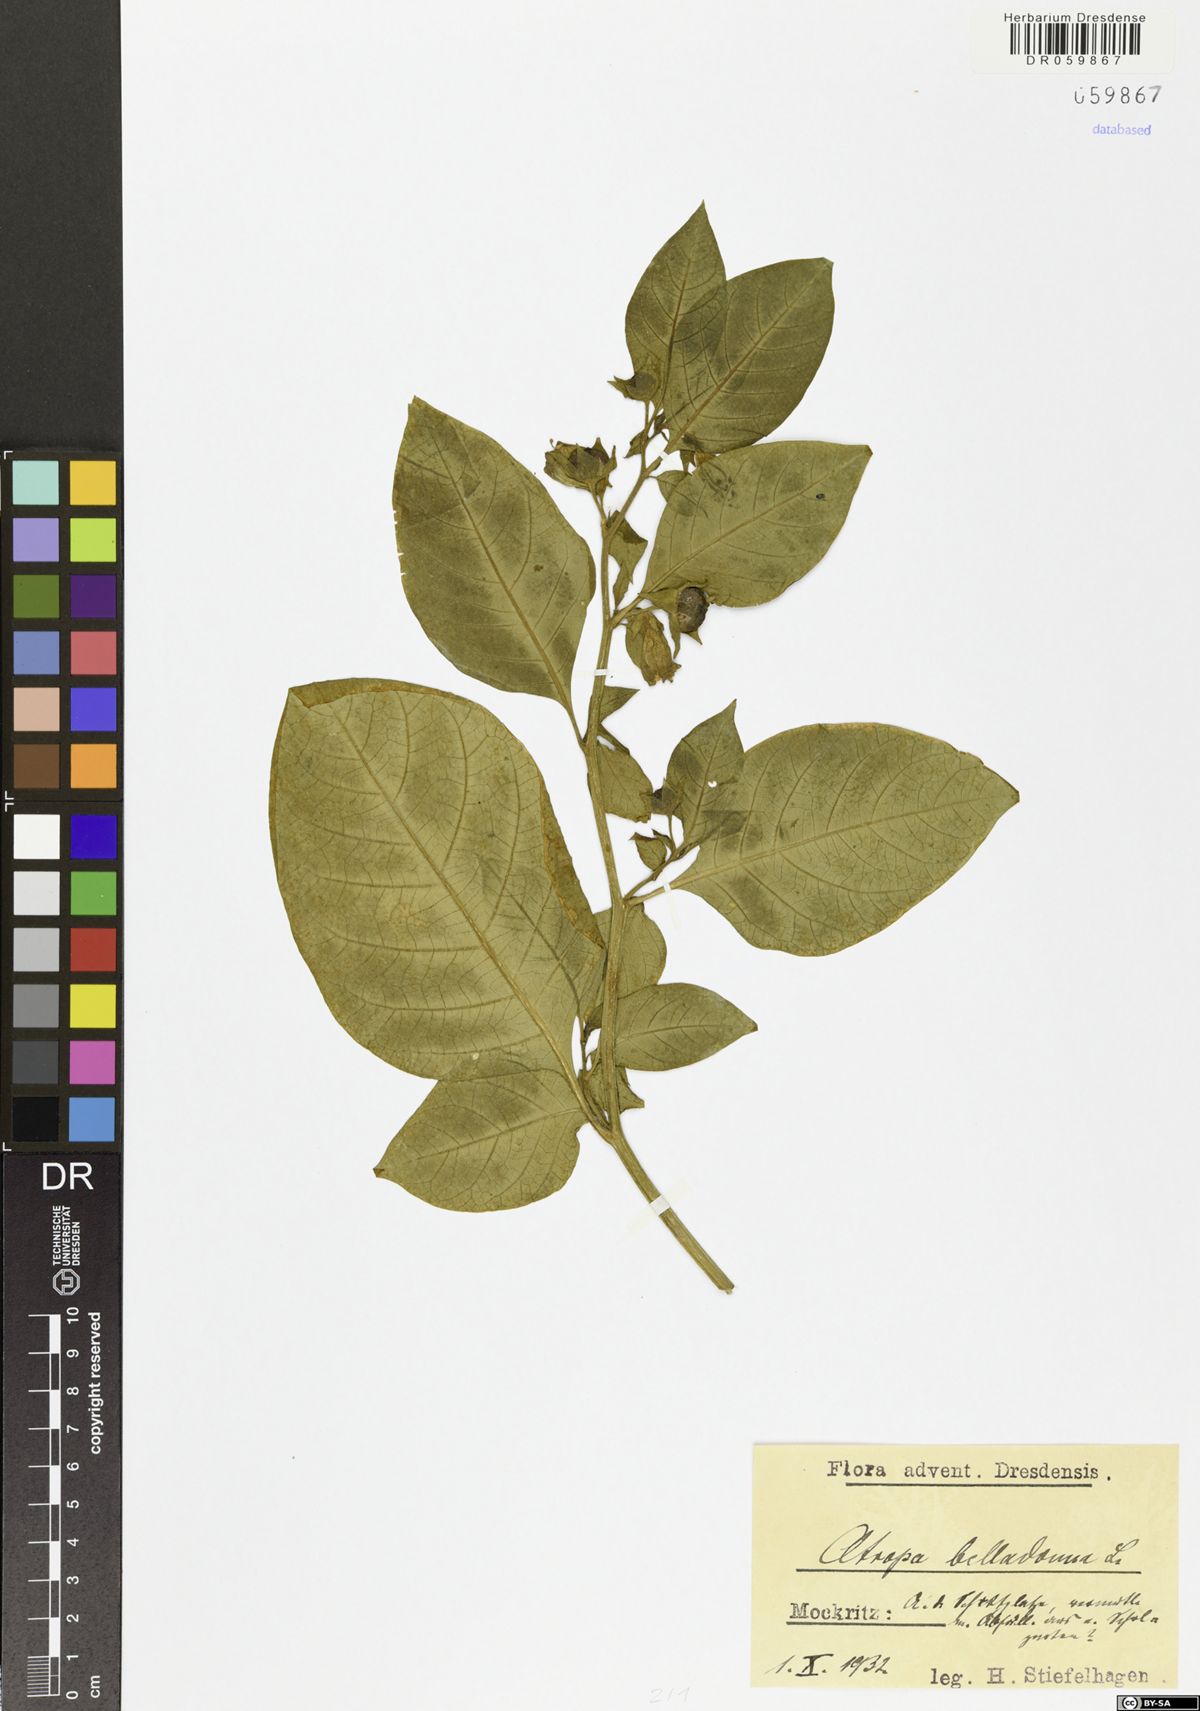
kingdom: Plantae
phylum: Tracheophyta
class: Magnoliopsida
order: Solanales
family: Solanaceae
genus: Atropa
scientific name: Atropa belladonna
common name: Deadly nightshade
